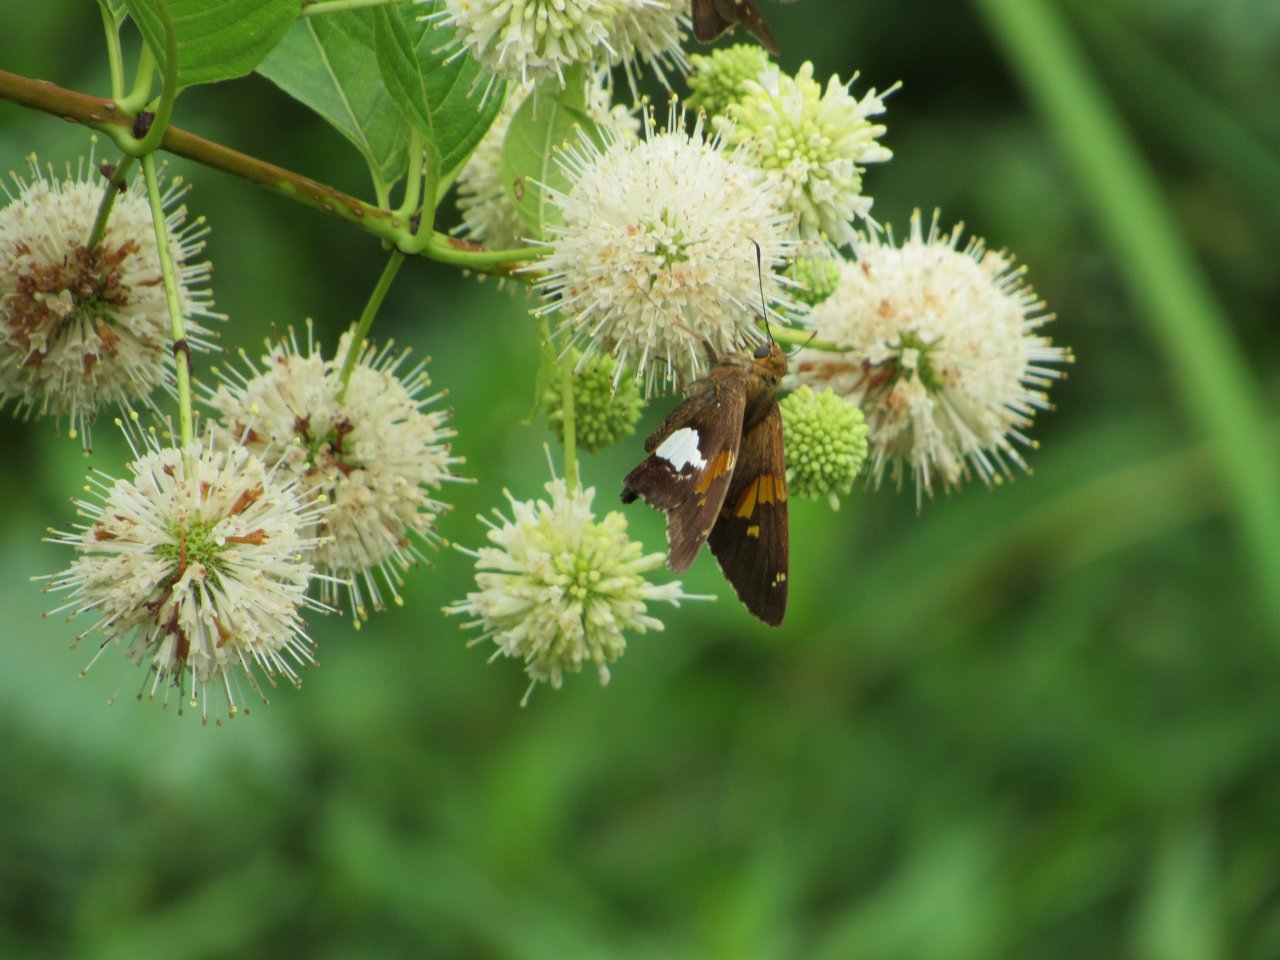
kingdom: Animalia
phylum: Arthropoda
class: Insecta
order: Lepidoptera
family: Hesperiidae
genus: Epargyreus
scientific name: Epargyreus clarus
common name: Silver-spotted Skipper
